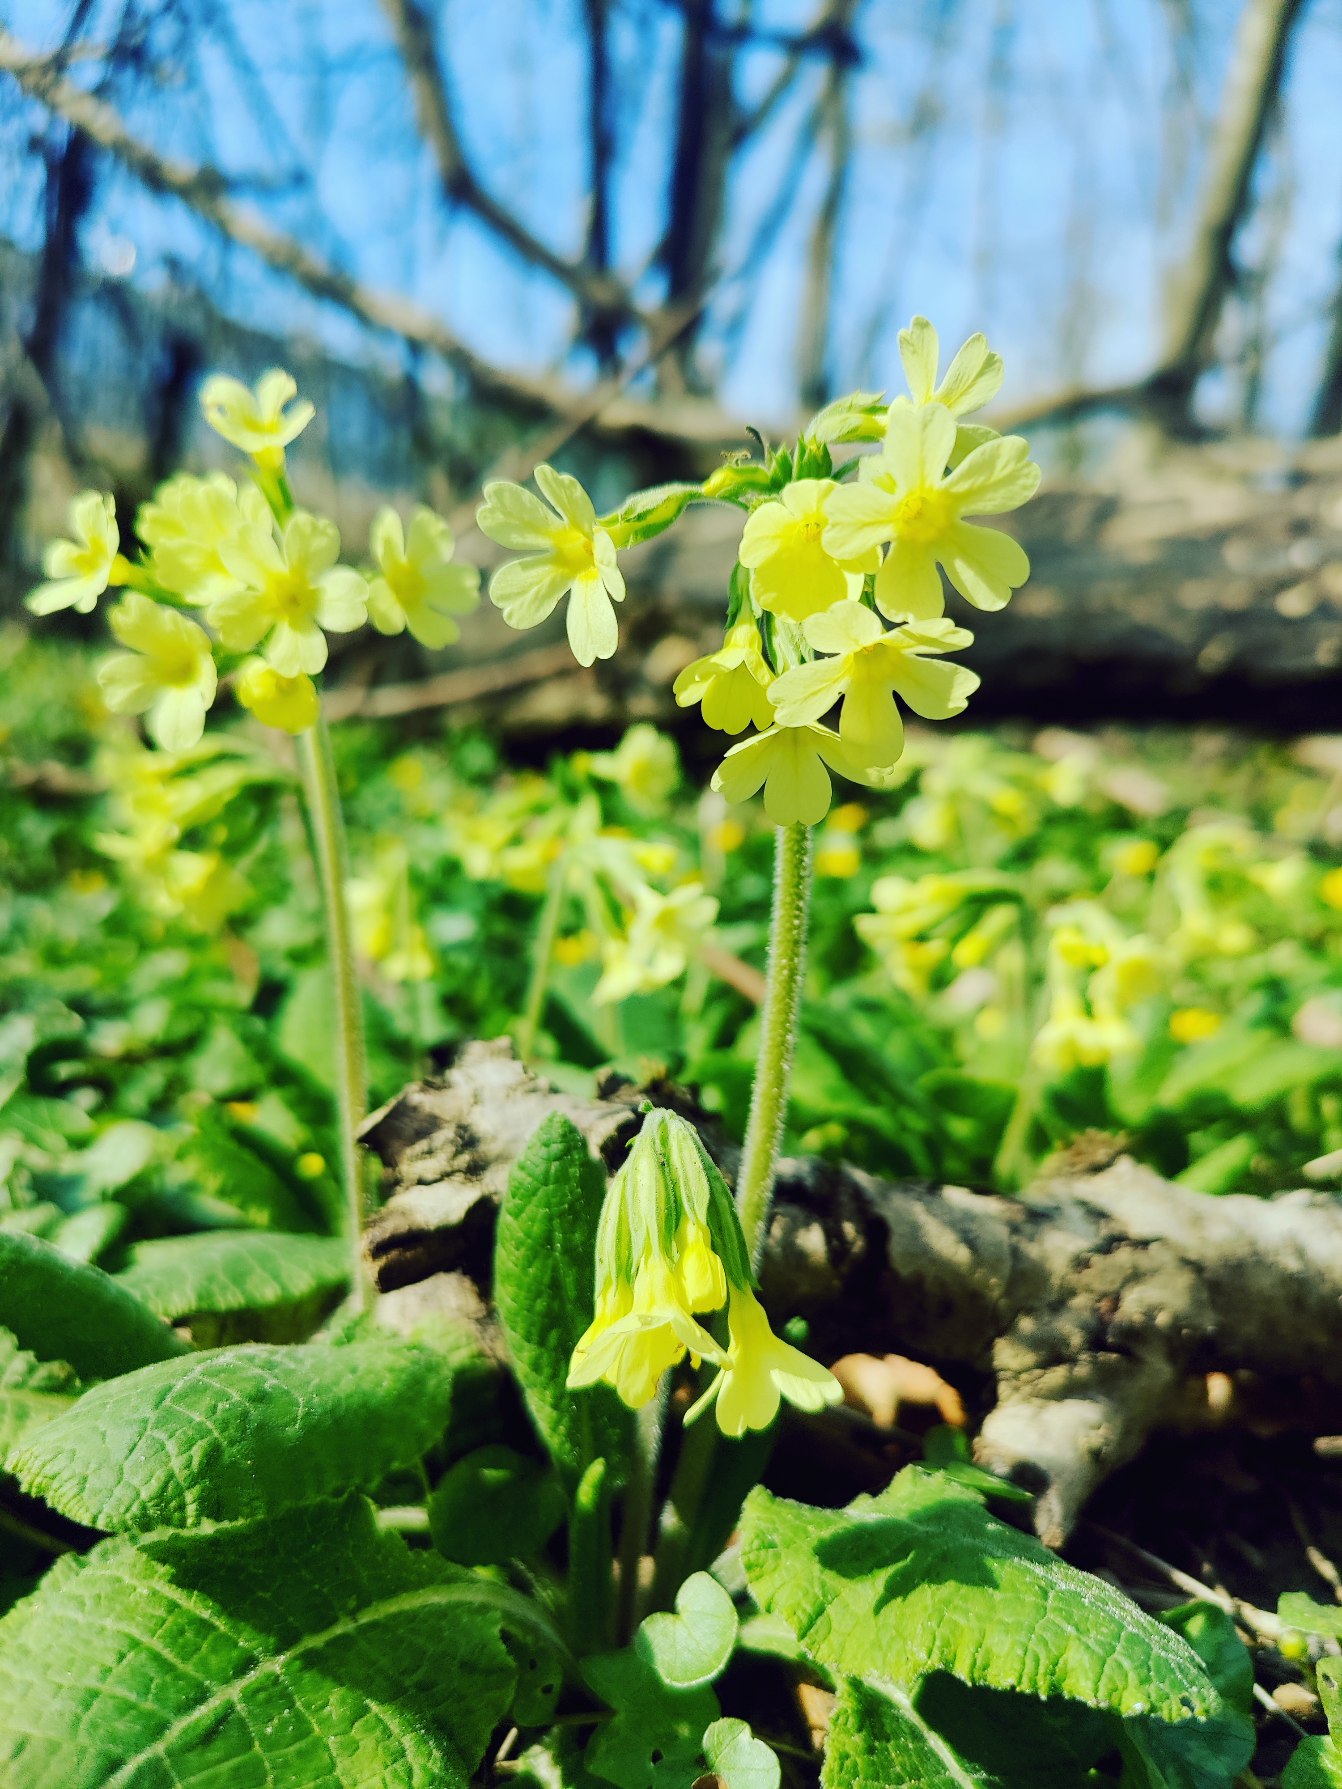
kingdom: Plantae
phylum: Tracheophyta
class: Magnoliopsida
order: Ericales
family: Primulaceae
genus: Primula
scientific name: Primula elatior
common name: Fladkravet kodriver
